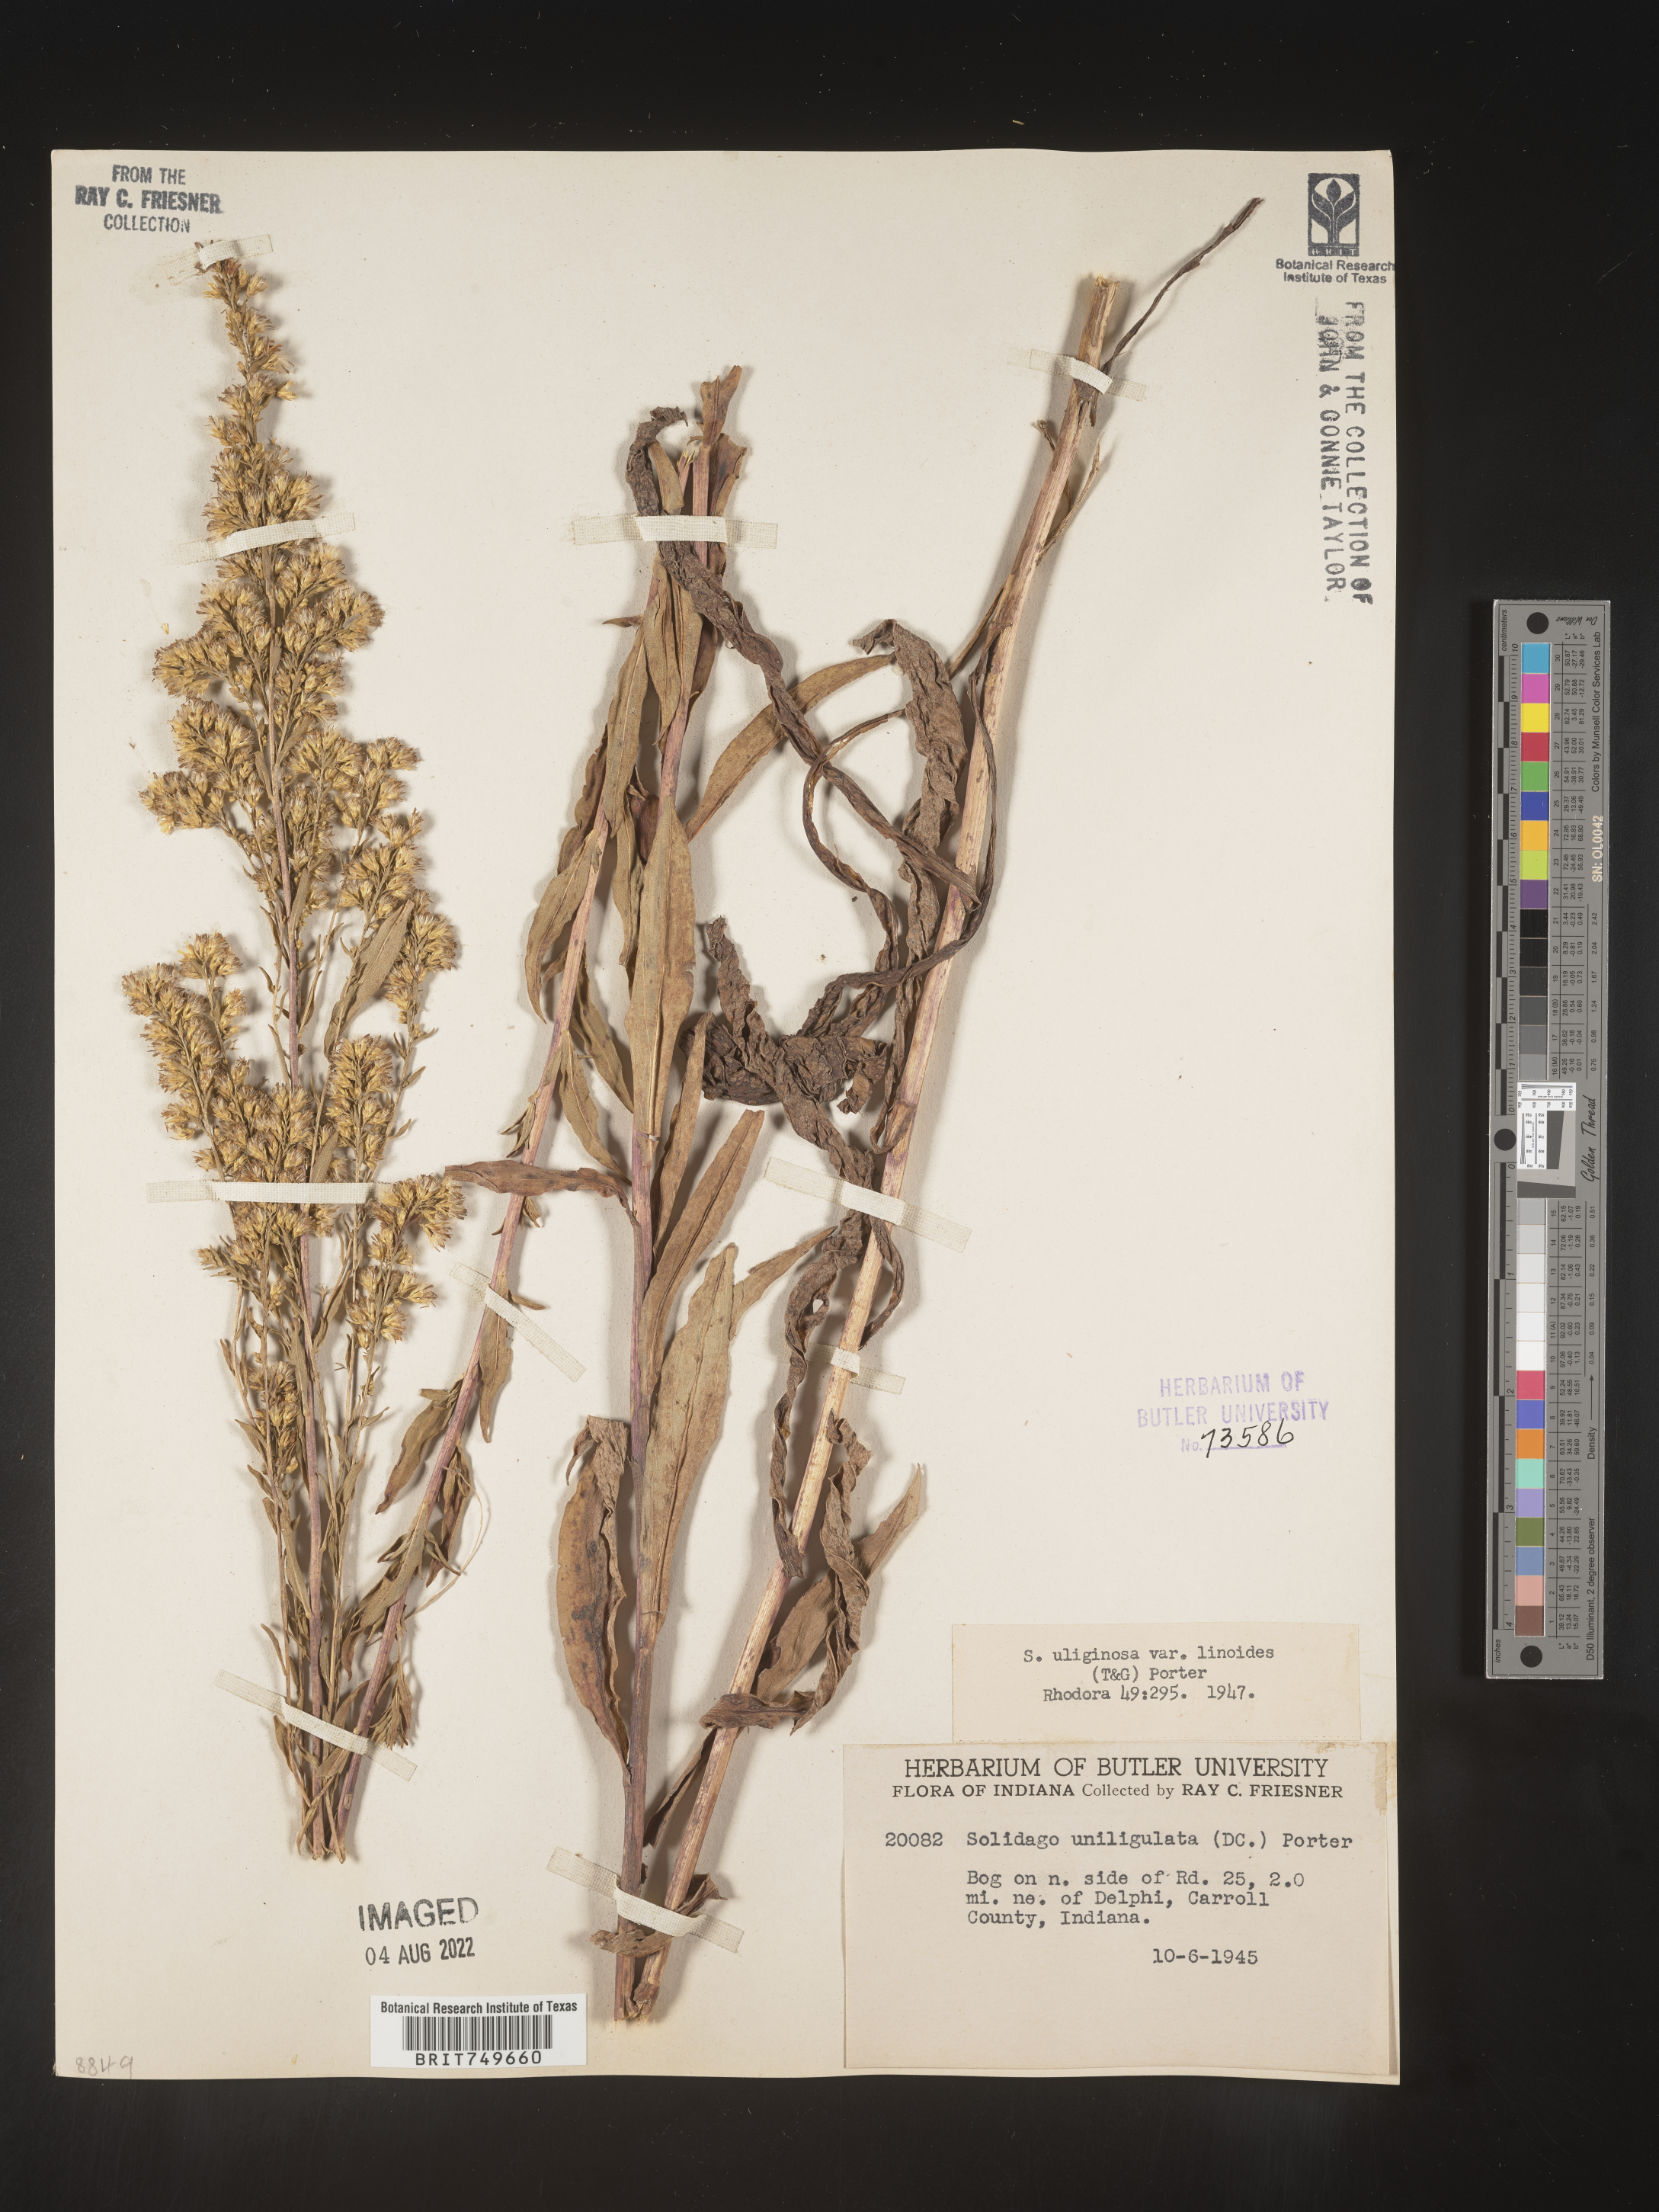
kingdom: Plantae
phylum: Tracheophyta
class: Magnoliopsida
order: Asterales
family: Asteraceae
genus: Solidago
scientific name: Solidago uliginosa
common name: Bog goldenrod
